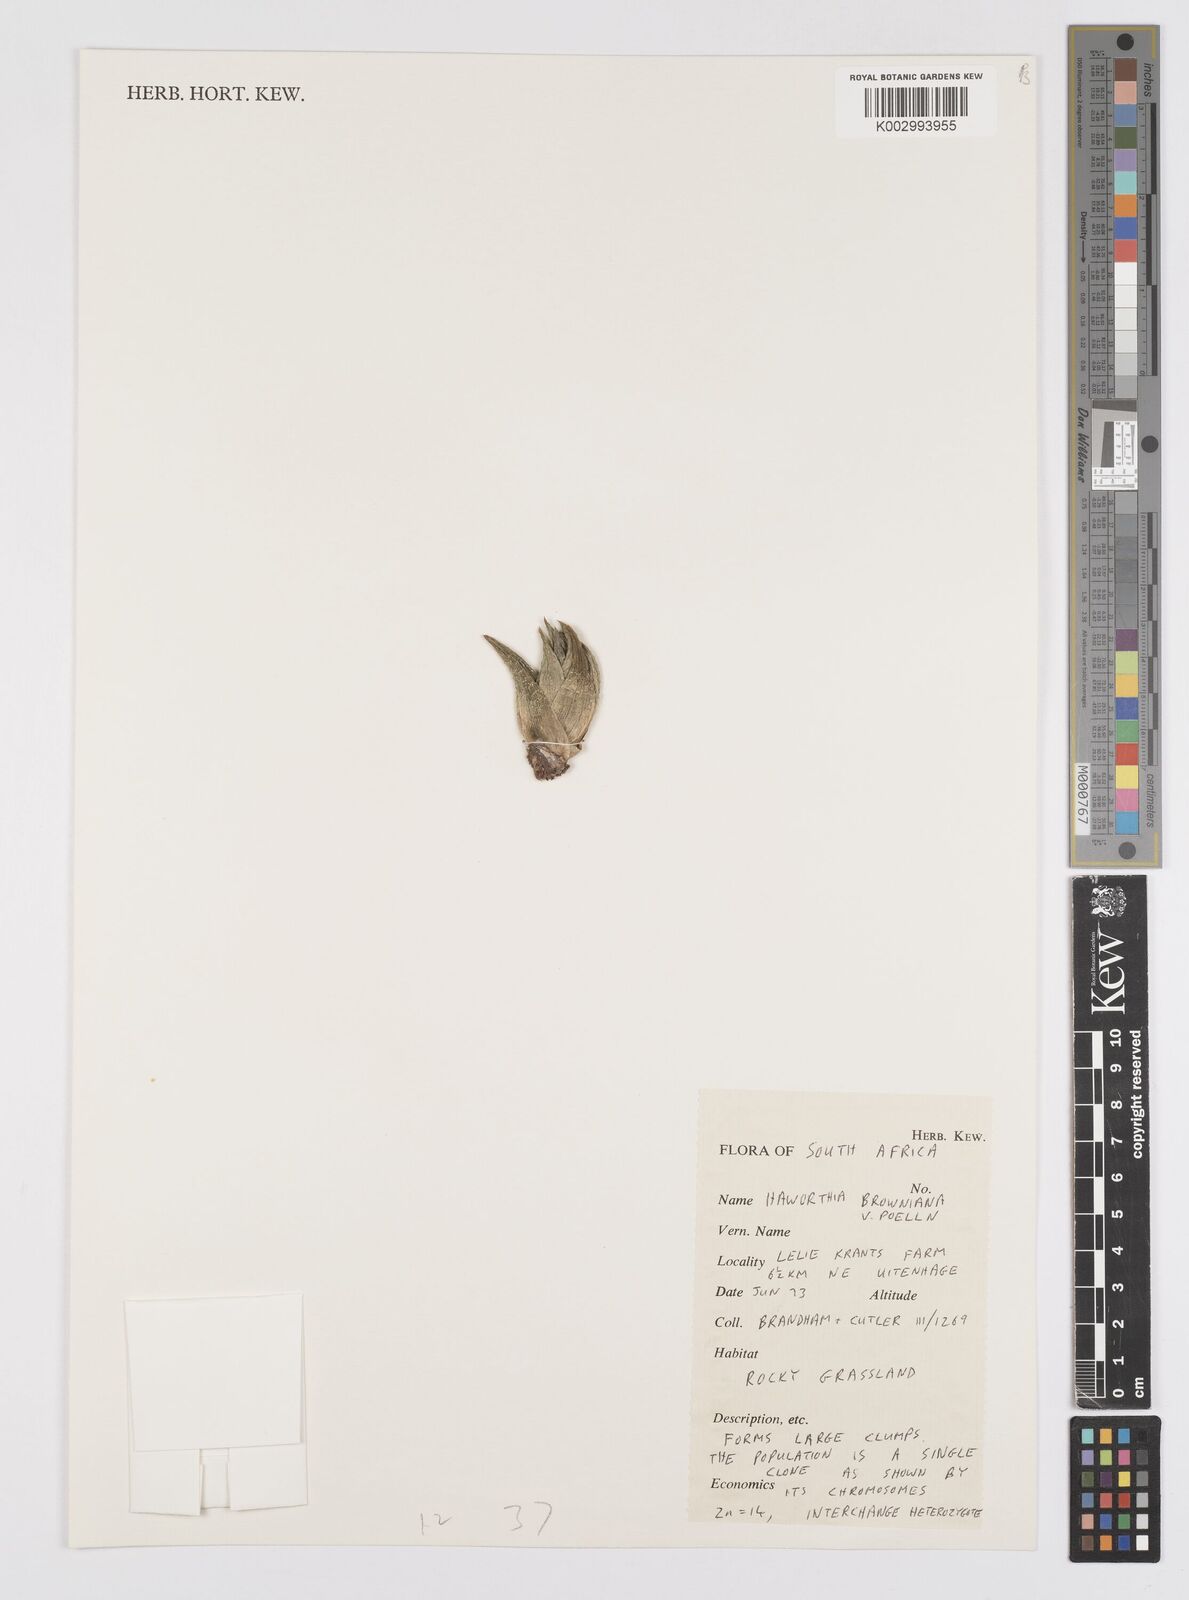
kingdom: Plantae
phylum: Tracheophyta
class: Liliopsida
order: Asparagales
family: Asphodelaceae
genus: Haworthiopsis
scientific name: Haworthiopsis fasciata
